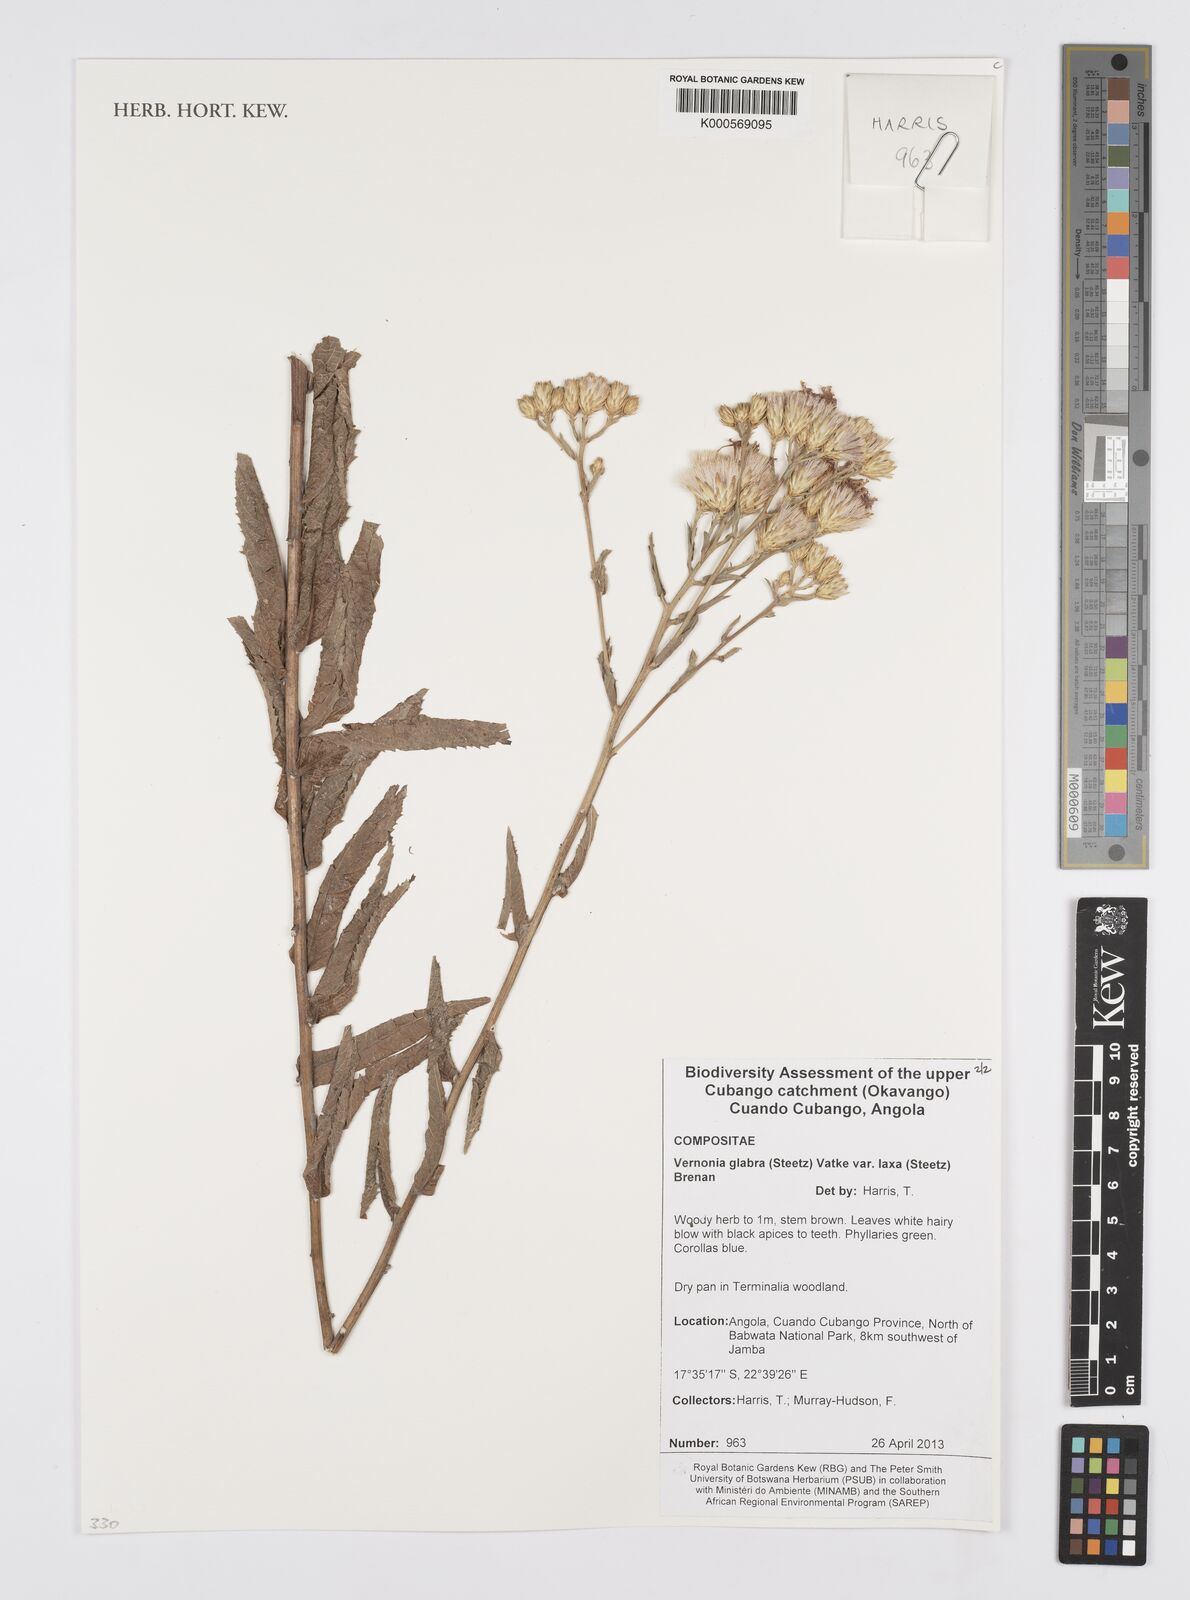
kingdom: Plantae
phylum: Tracheophyta
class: Magnoliopsida
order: Asterales
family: Asteraceae
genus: Linzia
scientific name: Linzia glabra
